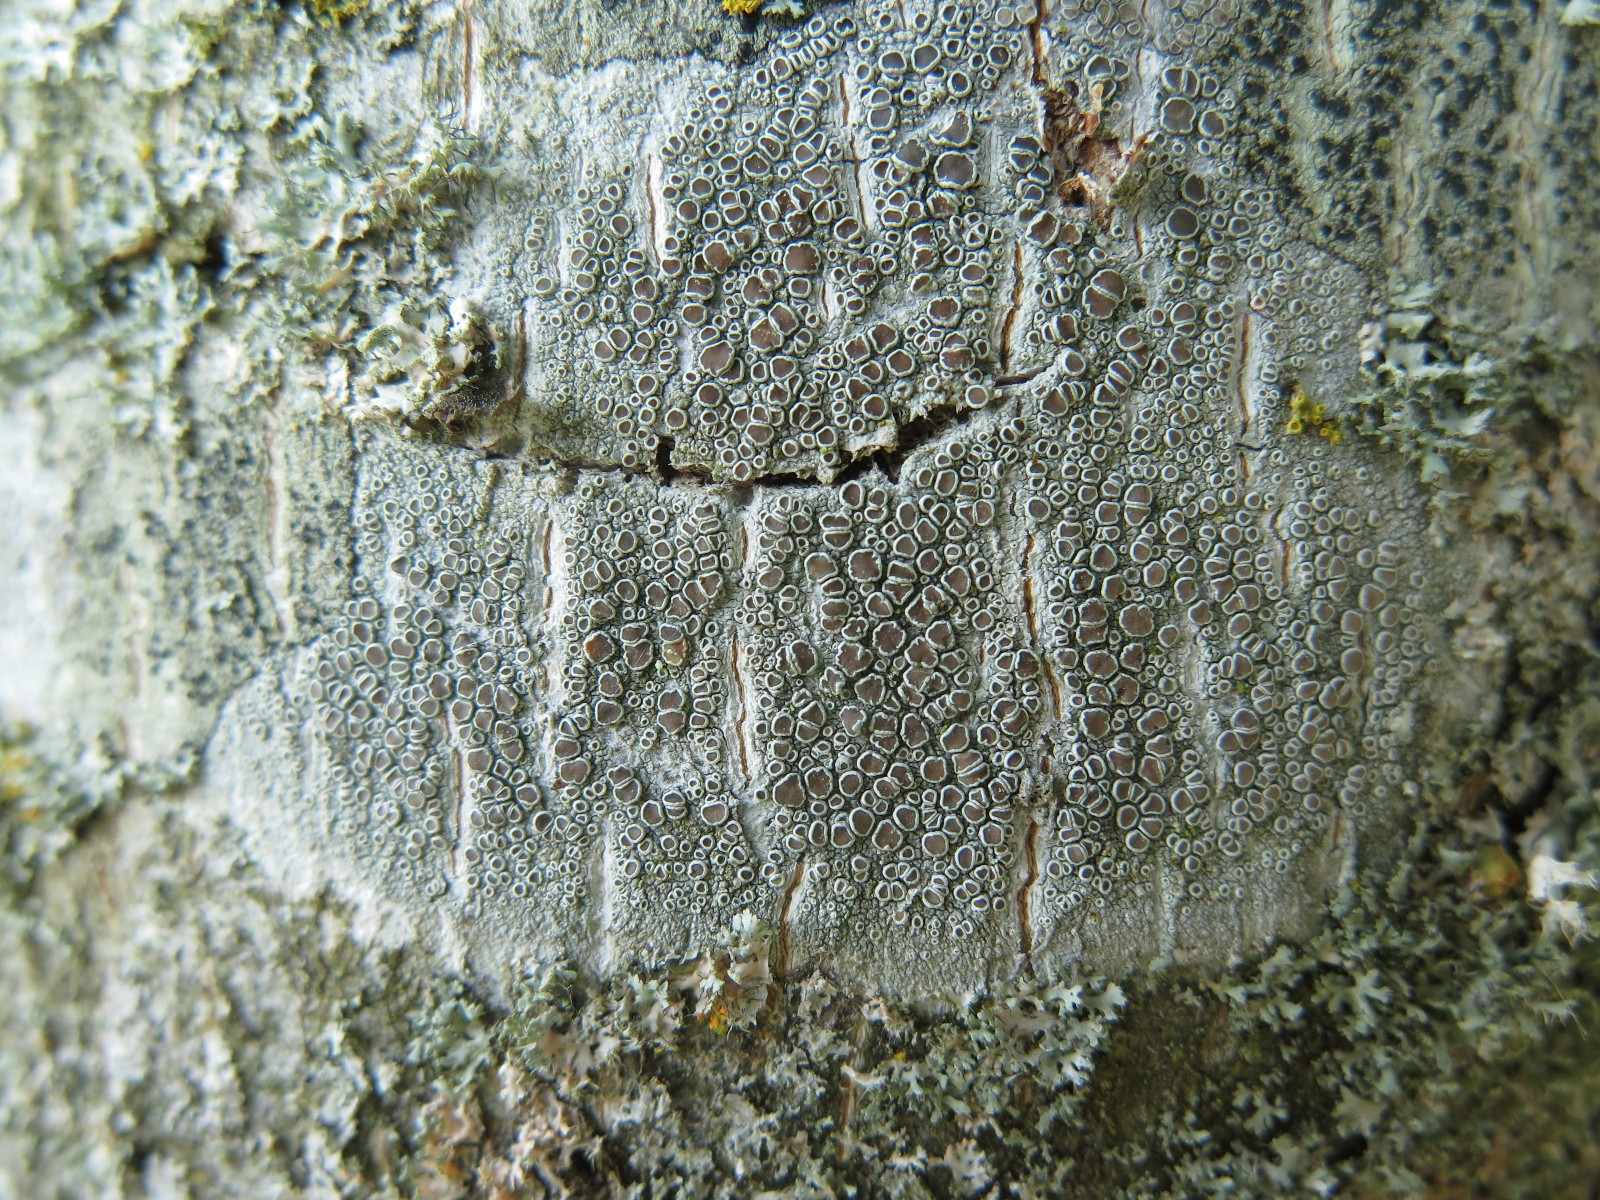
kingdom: Fungi
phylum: Ascomycota
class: Lecanoromycetes
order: Lecanorales
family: Lecanoraceae
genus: Lecanora
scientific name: Lecanora chlarotera
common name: brun kantskivelav
